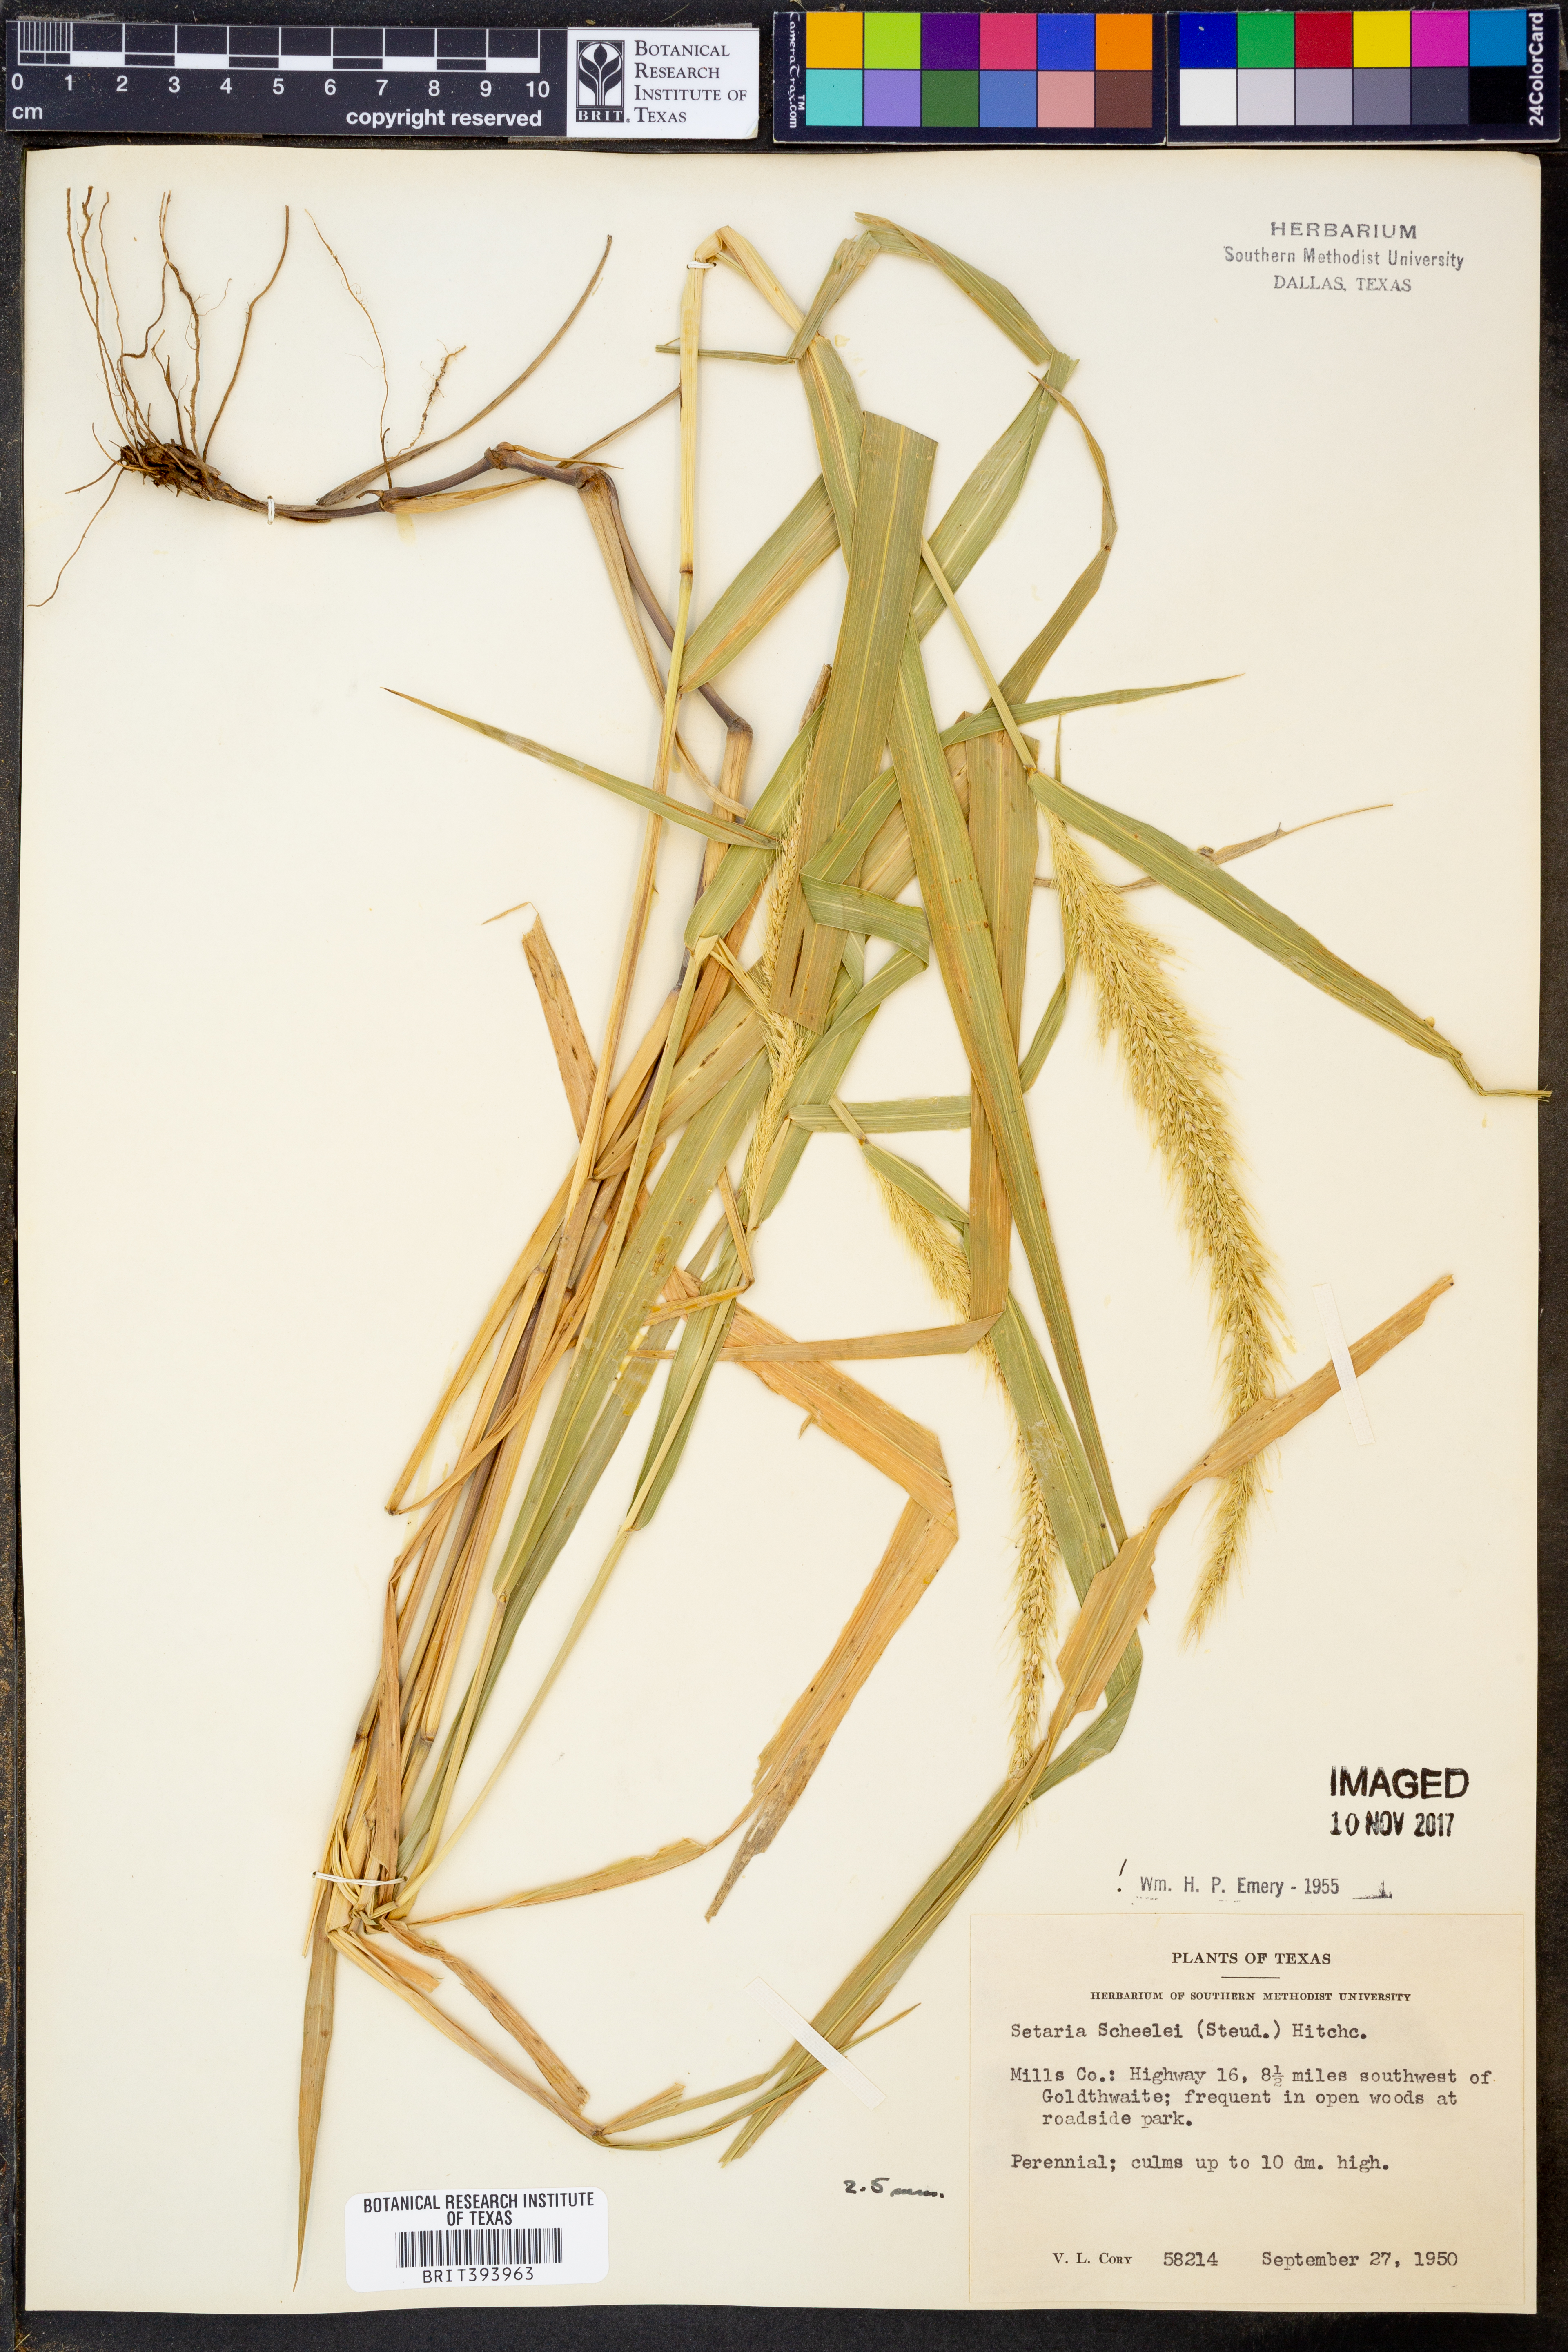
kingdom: Plantae
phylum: Tracheophyta
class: Liliopsida
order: Poales
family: Poaceae
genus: Setaria
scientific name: Setaria scheelei
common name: Southwestern bristle grass
